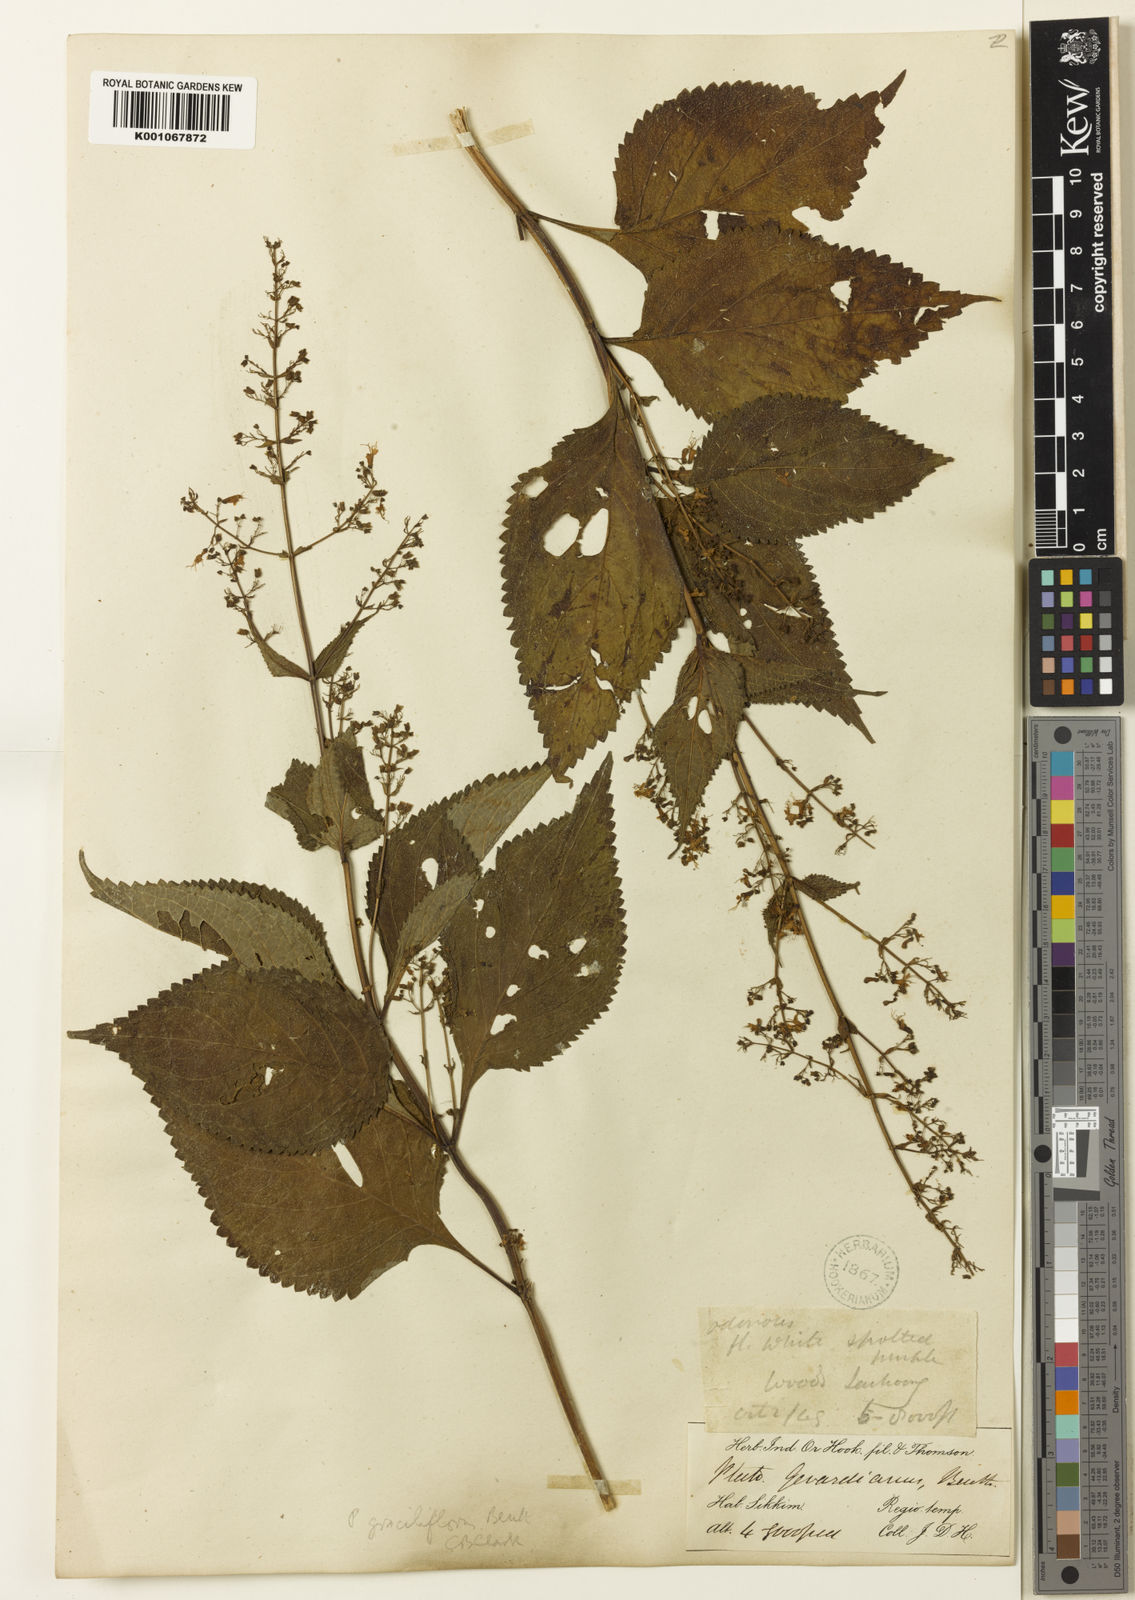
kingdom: Plantae
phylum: Tracheophyta
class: Magnoliopsida
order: Lamiales
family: Lamiaceae
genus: Isodon
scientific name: Isodon lophanthoides
